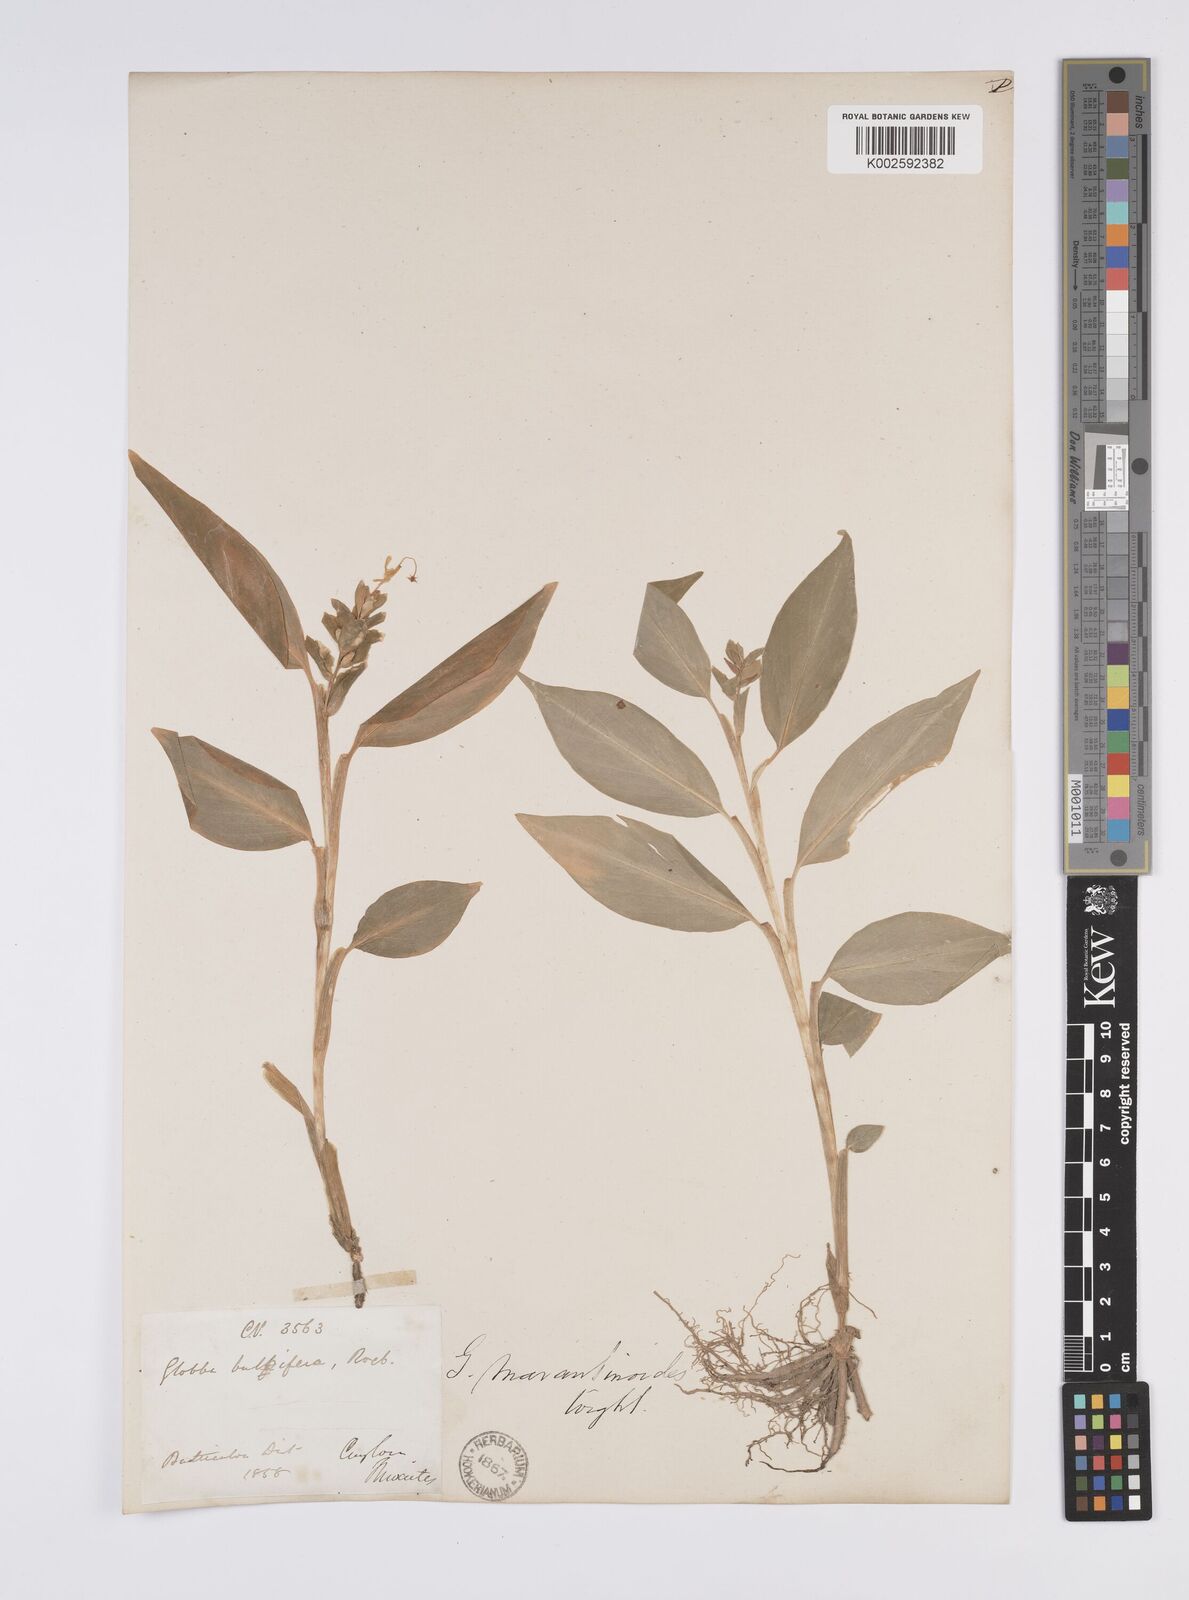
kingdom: Plantae
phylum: Tracheophyta
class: Liliopsida
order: Zingiberales
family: Zingiberaceae
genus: Globba
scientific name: Globba marantina
